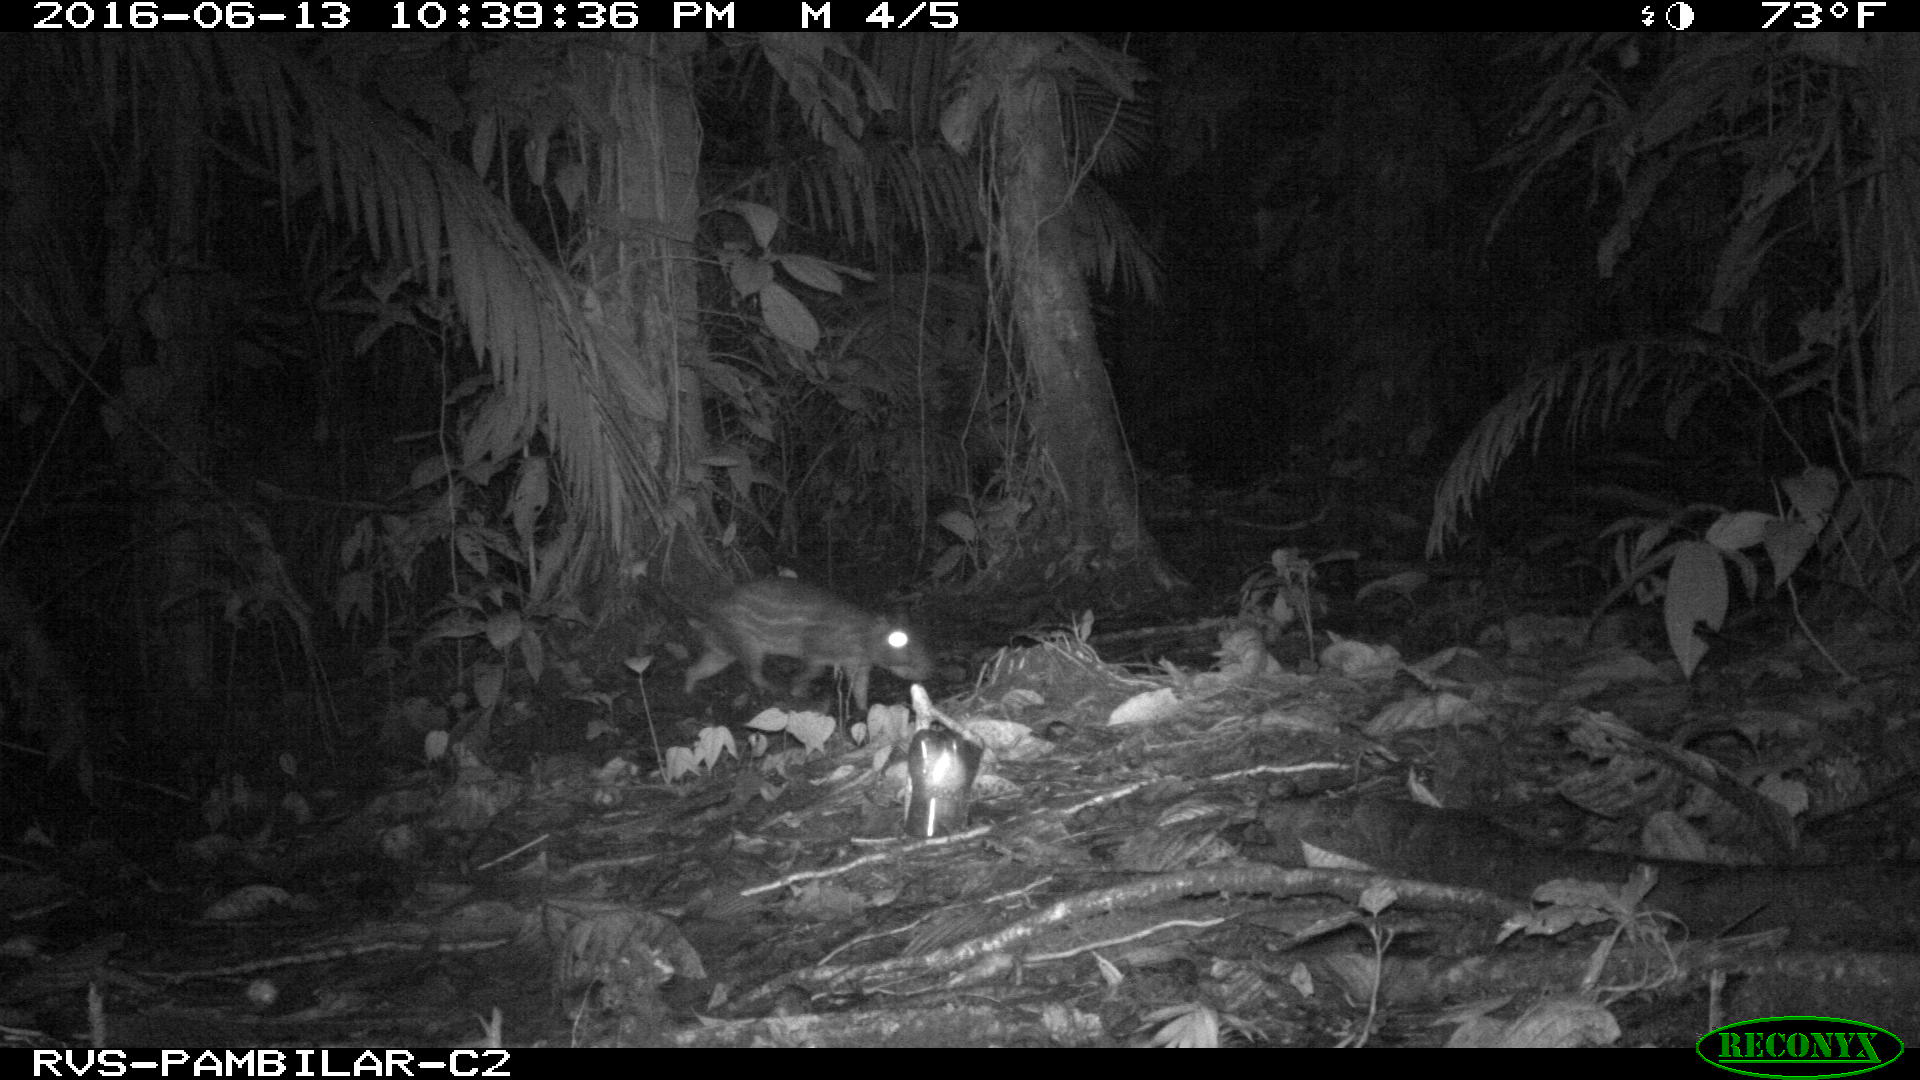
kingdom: Animalia
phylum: Chordata
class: Mammalia
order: Rodentia
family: Cuniculidae
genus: Cuniculus
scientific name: Cuniculus paca
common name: Lowland paca
